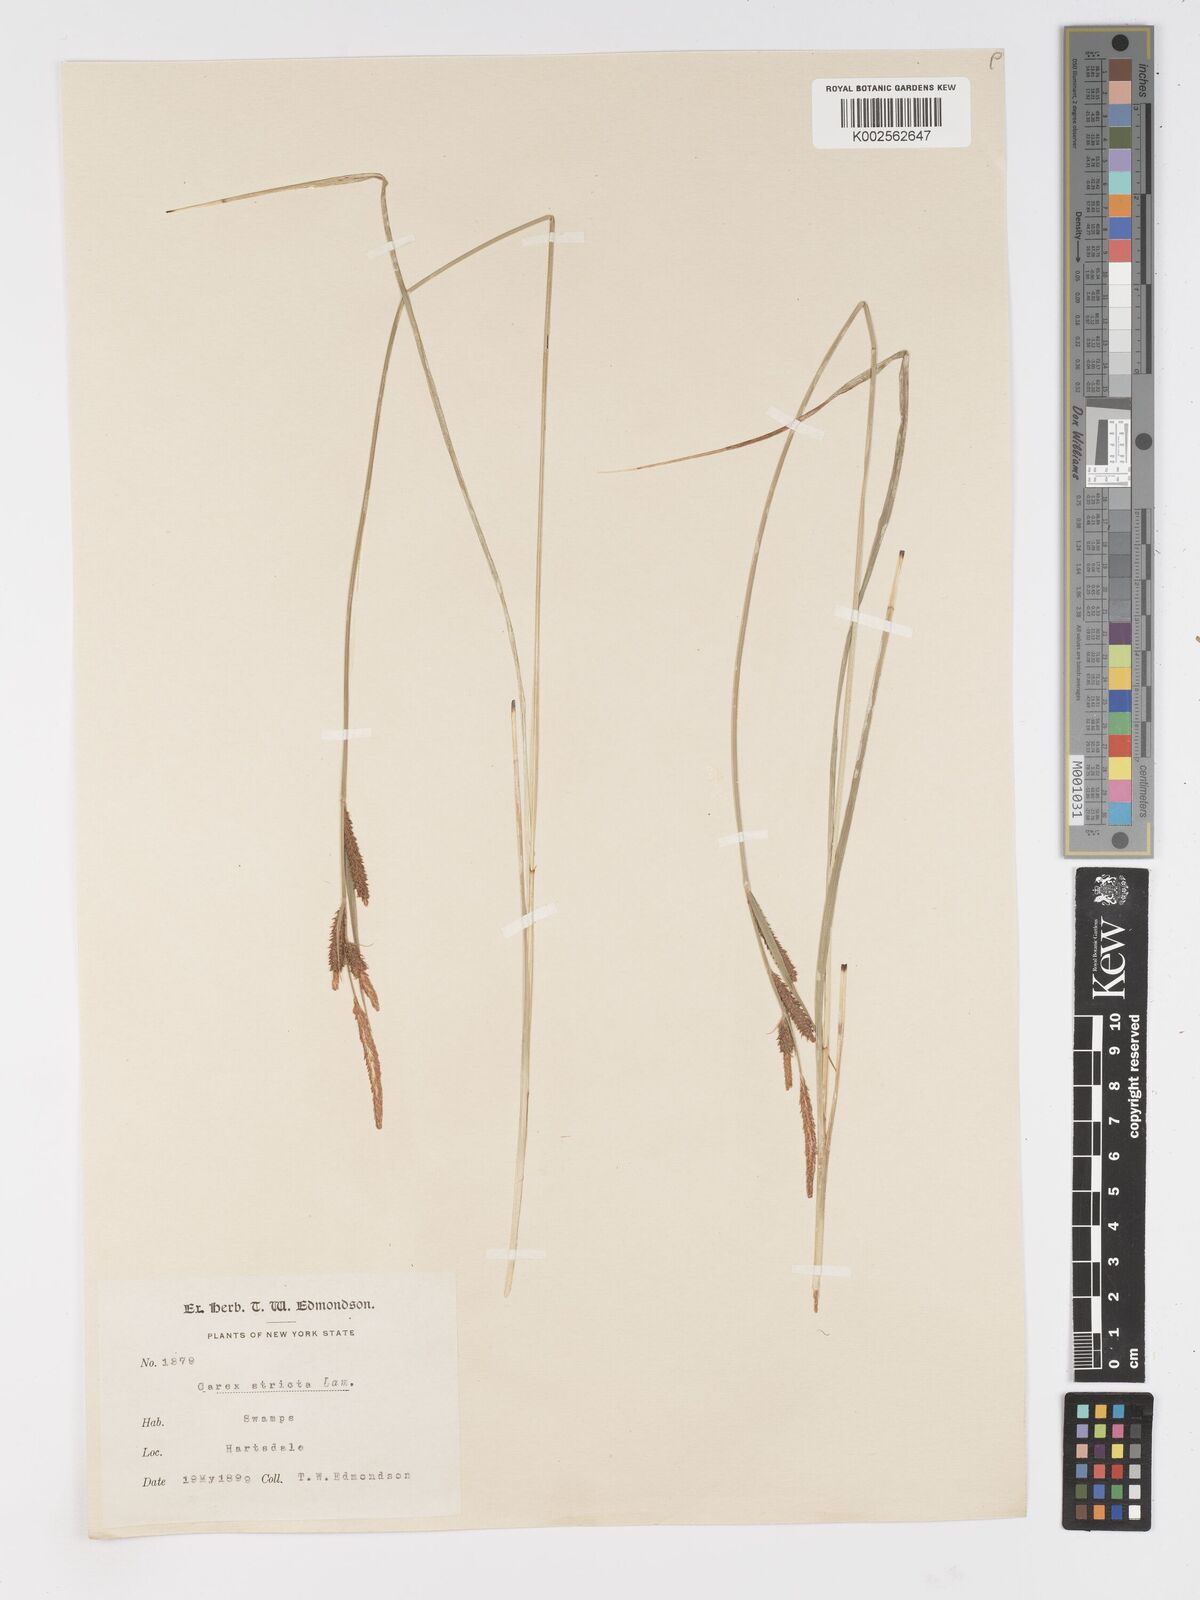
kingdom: Plantae
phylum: Tracheophyta
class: Liliopsida
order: Poales
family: Cyperaceae
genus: Carex
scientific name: Carex stricta
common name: Hummock sedge
